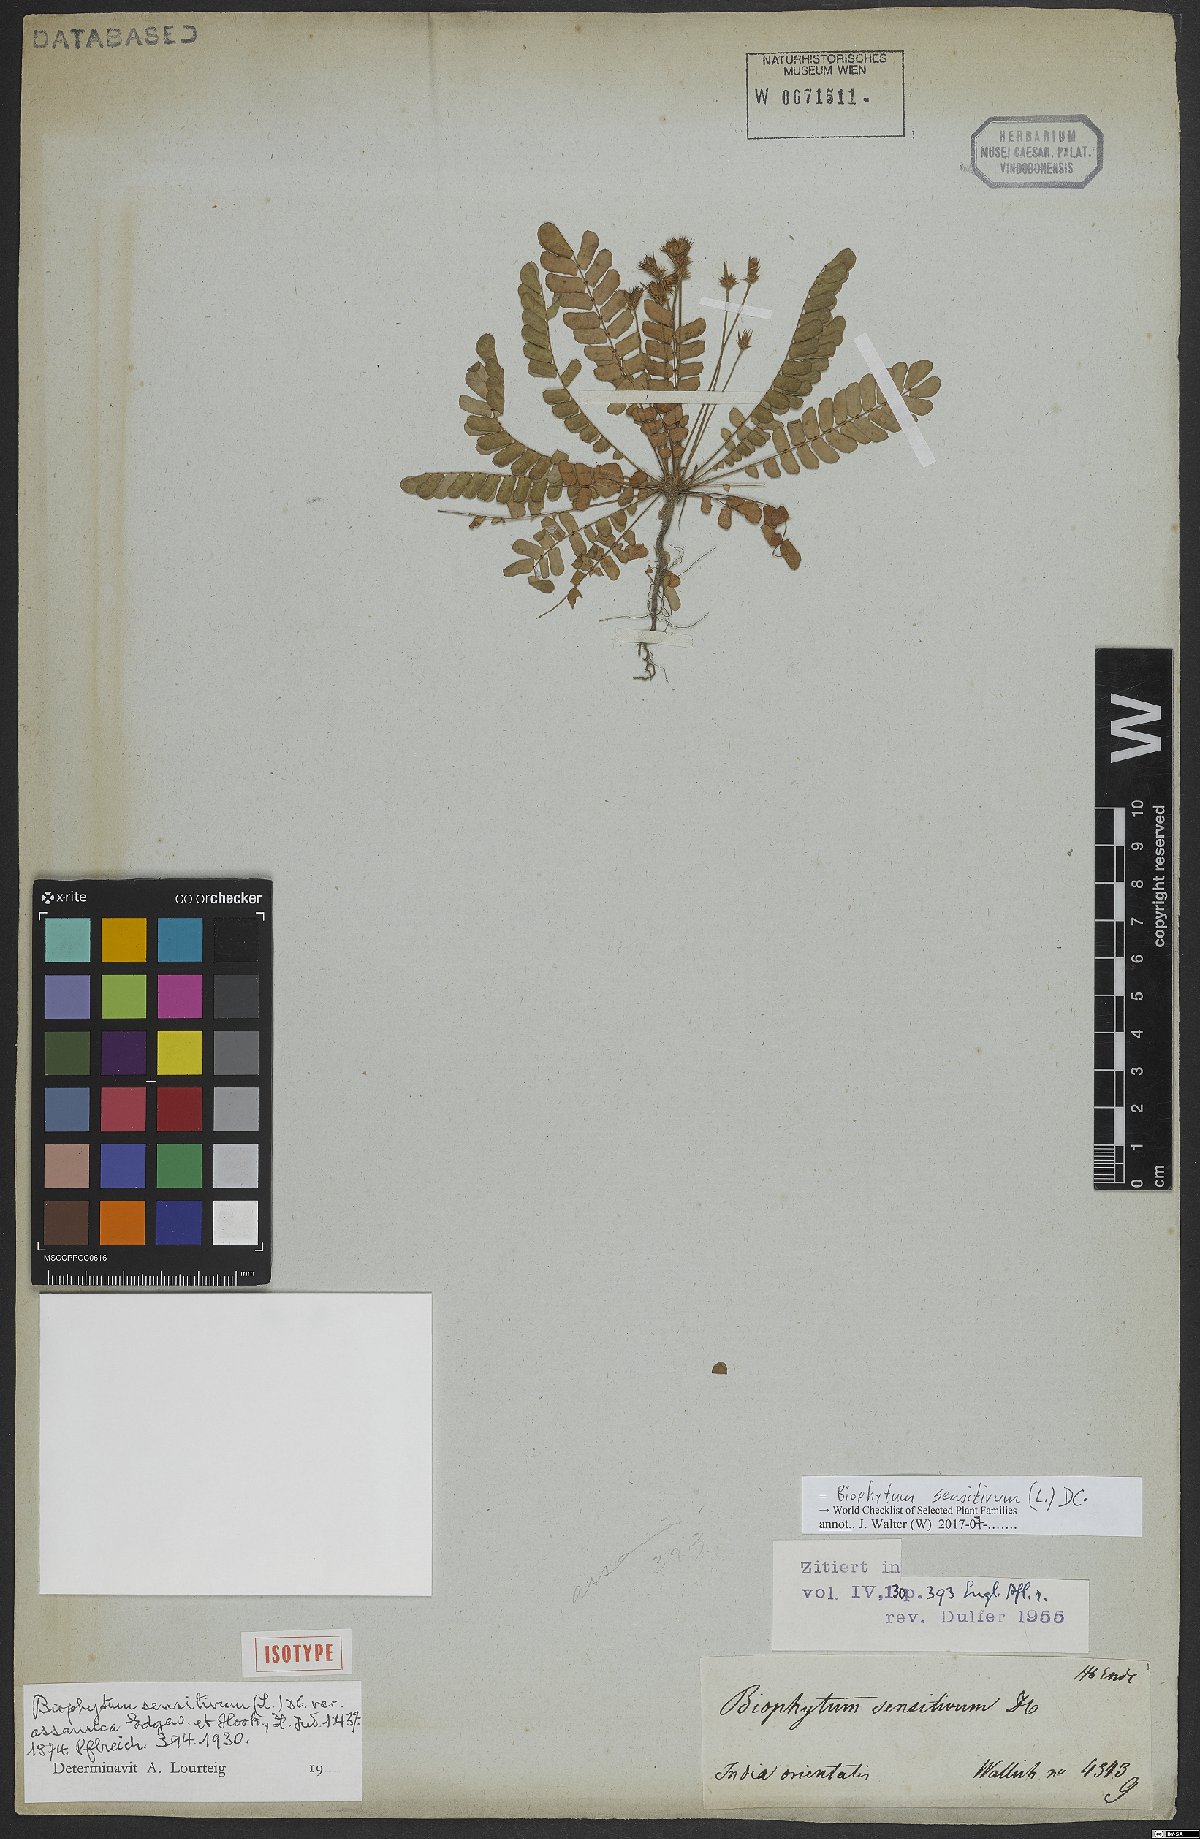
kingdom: Plantae
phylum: Tracheophyta
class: Magnoliopsida
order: Oxalidales
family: Oxalidaceae
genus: Biophytum
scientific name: Biophytum sensitivum
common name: Lifeplant
